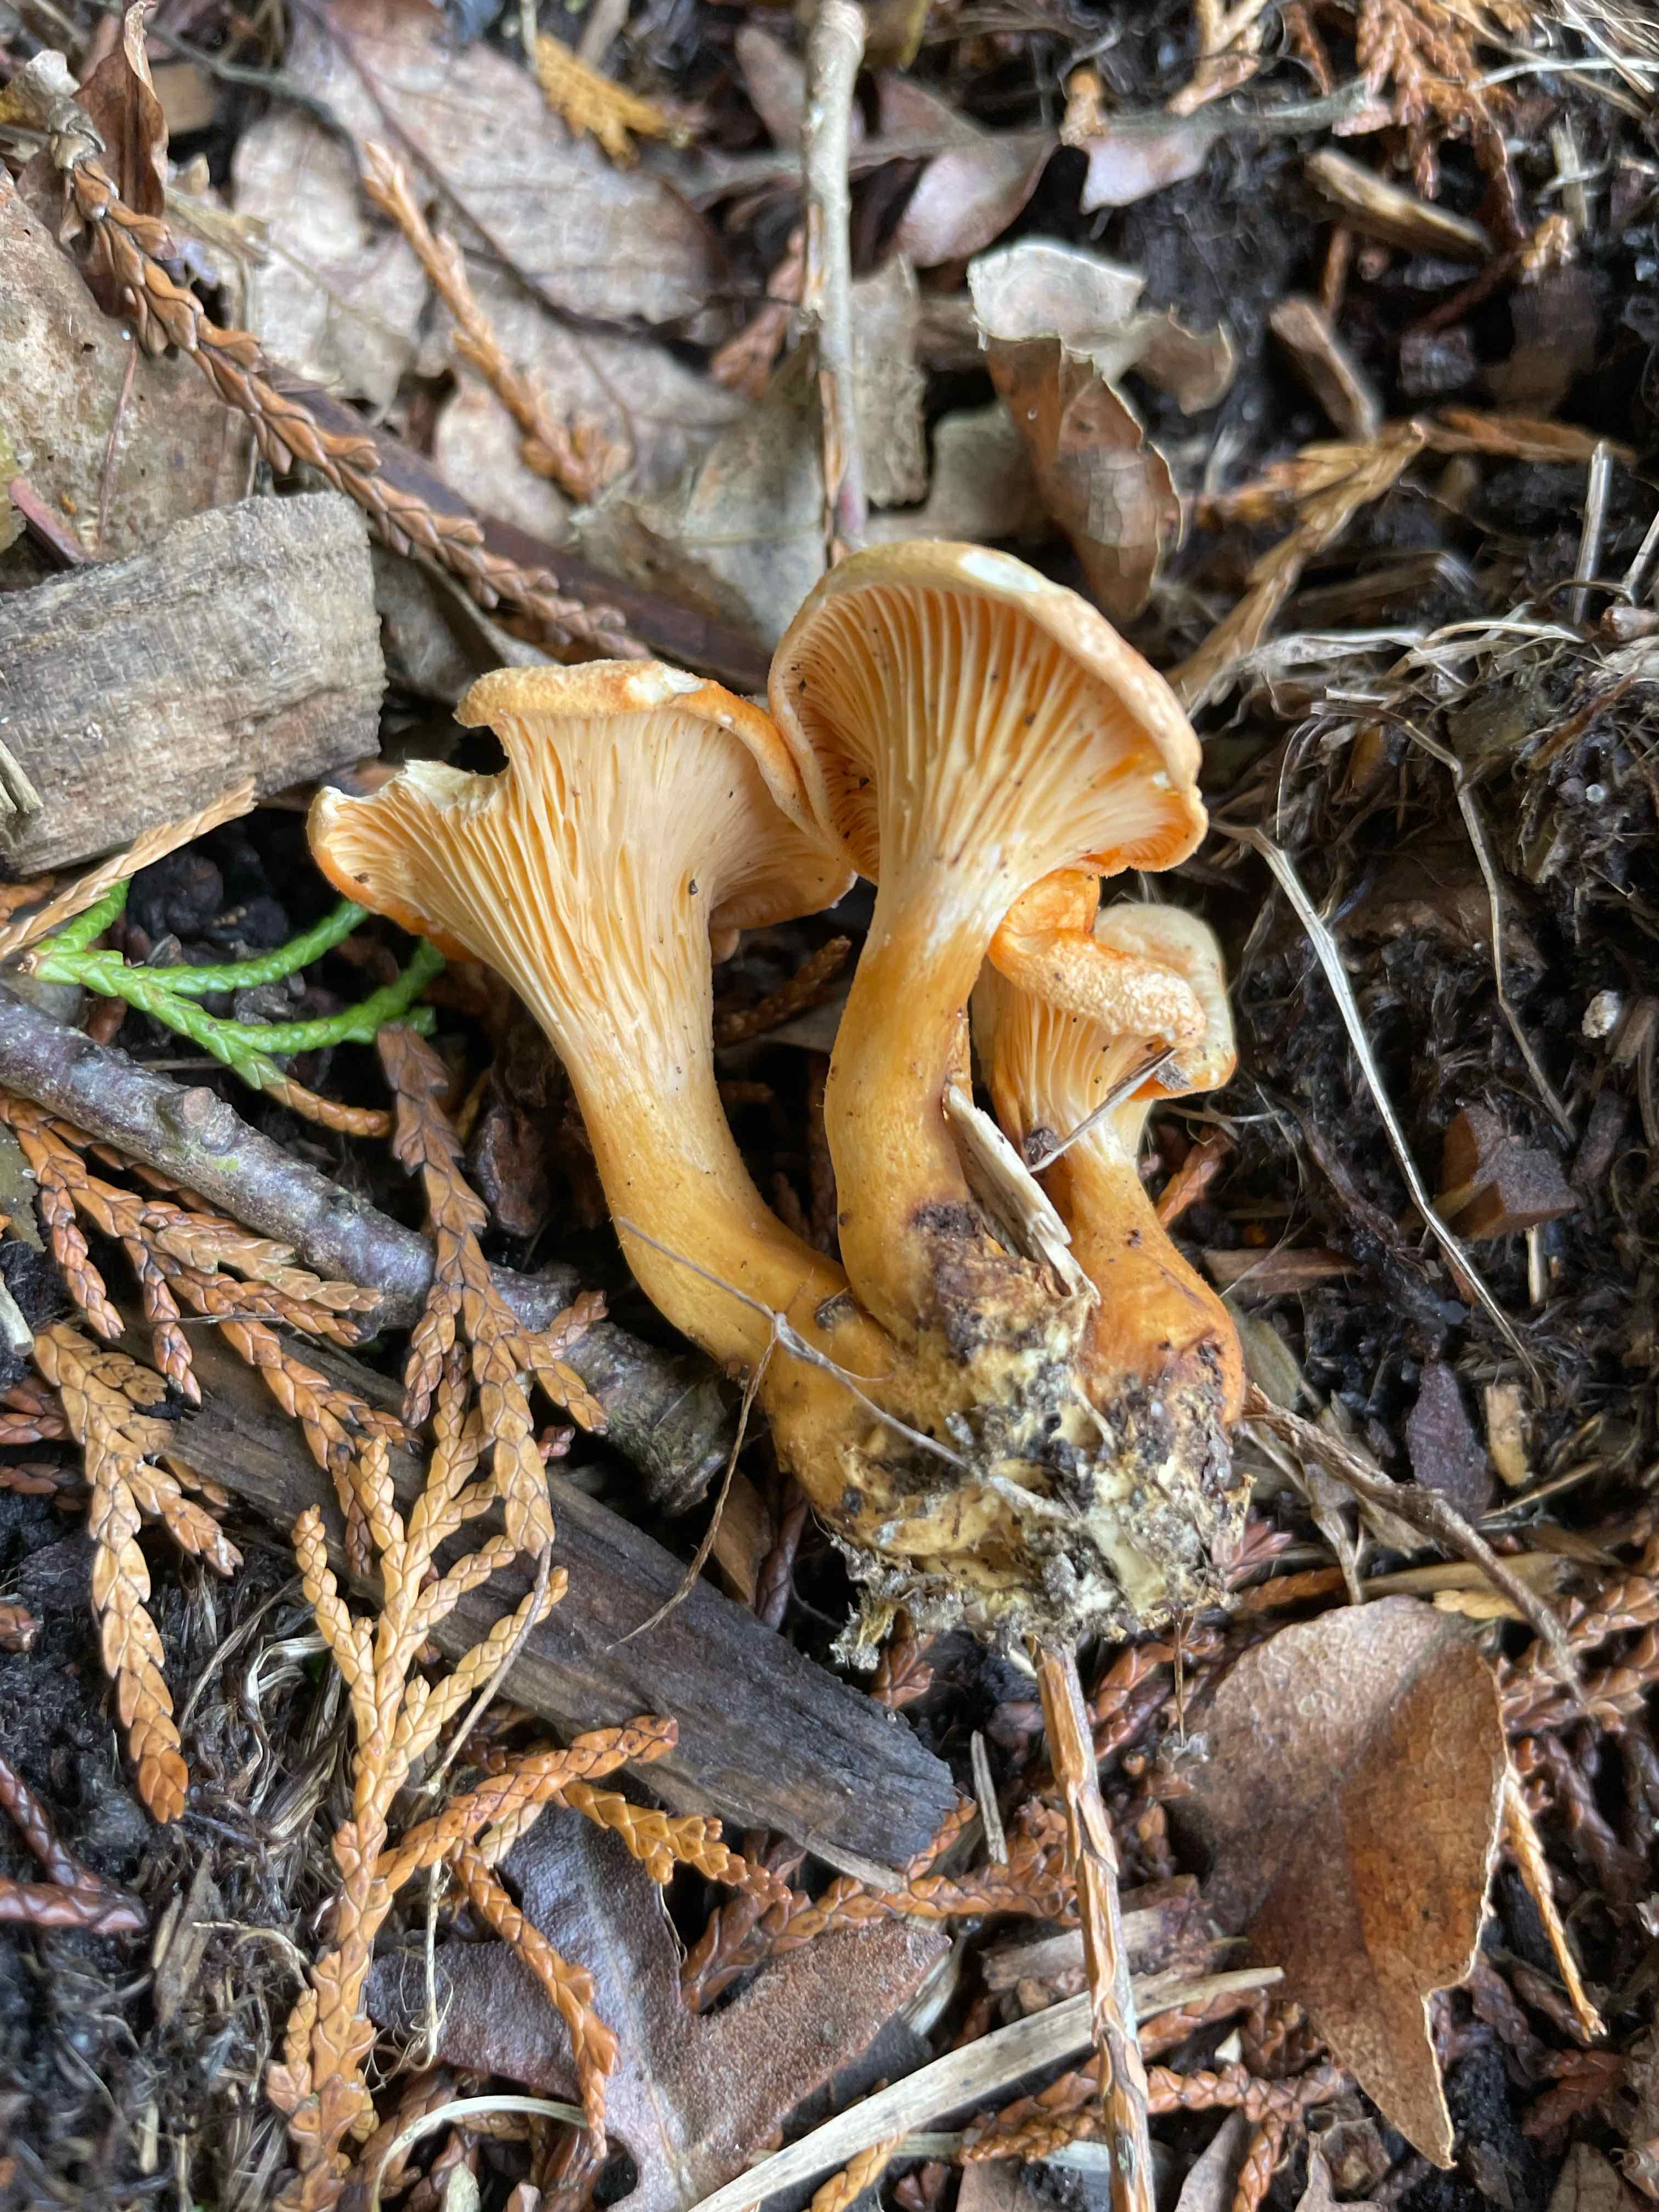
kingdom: Fungi
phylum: Basidiomycota
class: Agaricomycetes
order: Cantharellales
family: Hydnaceae
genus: Cantharellus
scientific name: Cantharellus cibarius
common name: almindelig kantarel
